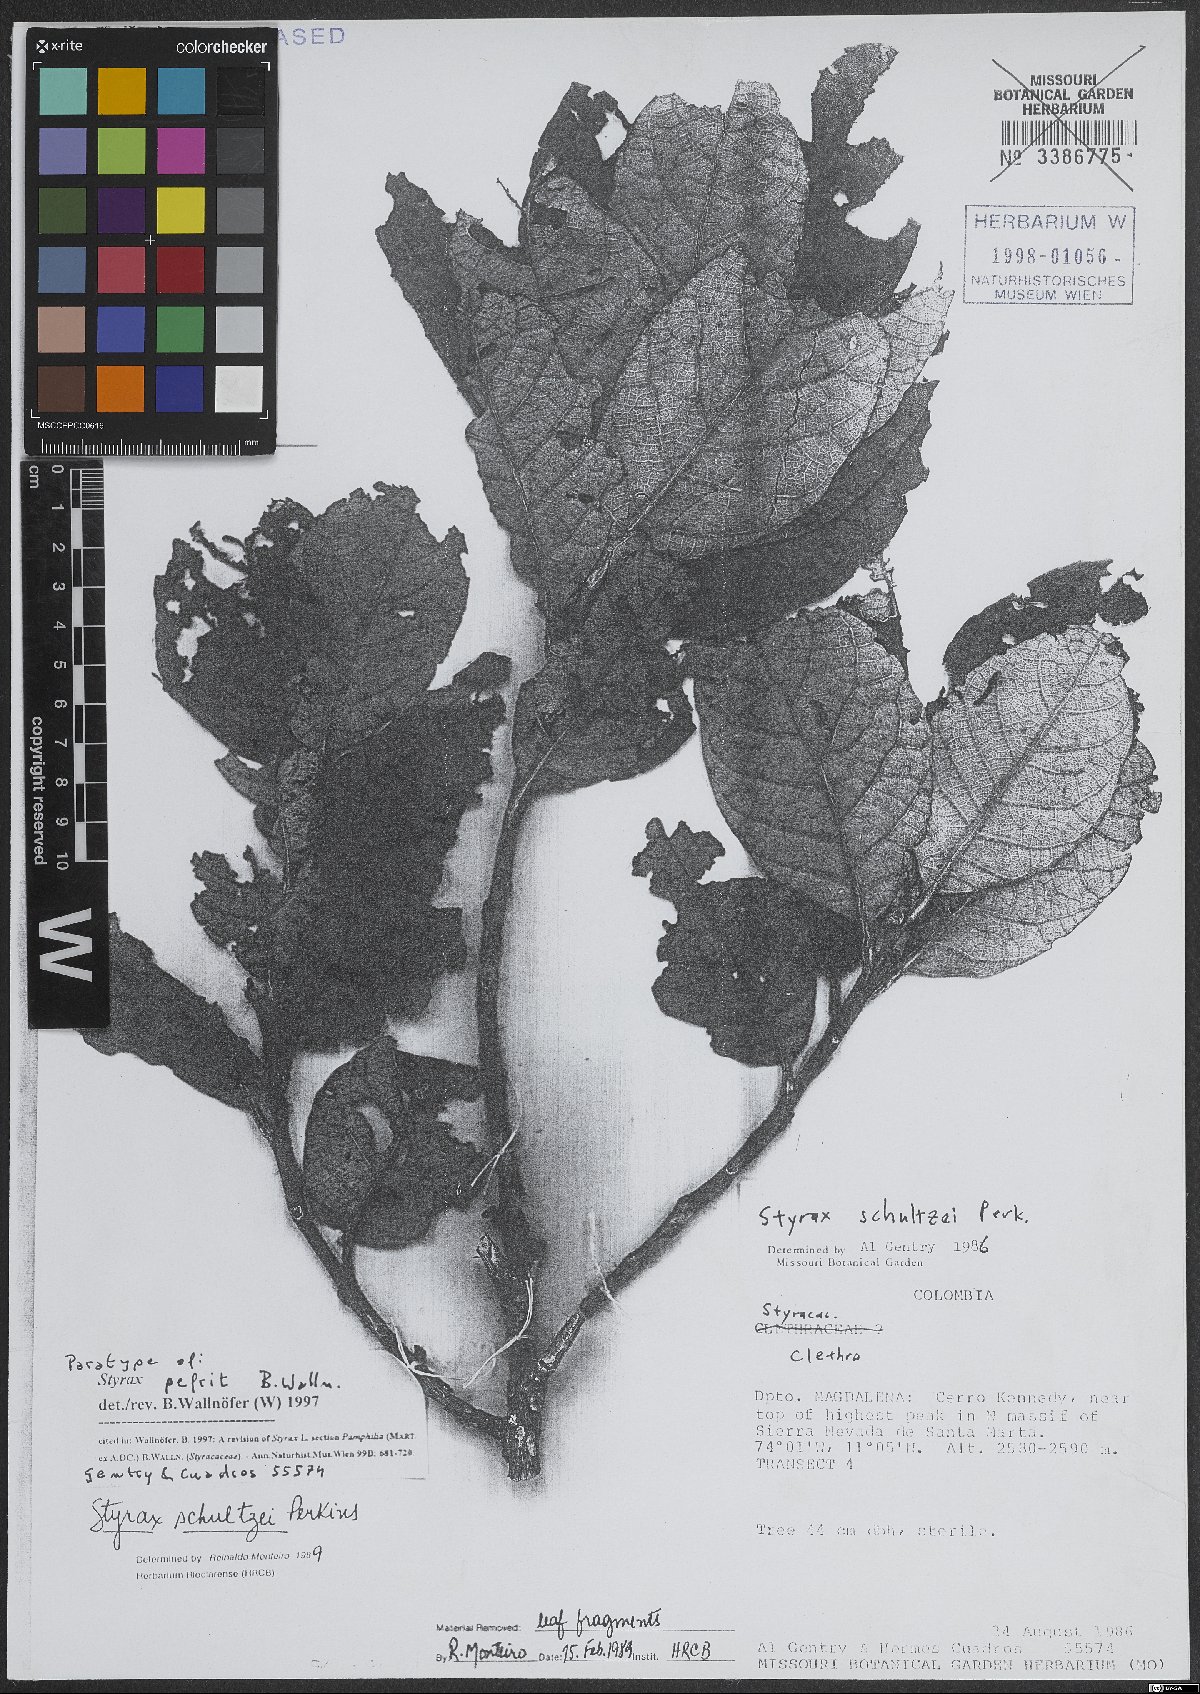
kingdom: Plantae
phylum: Tracheophyta
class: Magnoliopsida
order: Ericales
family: Styracaceae
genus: Styrax
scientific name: Styrax pefrit
